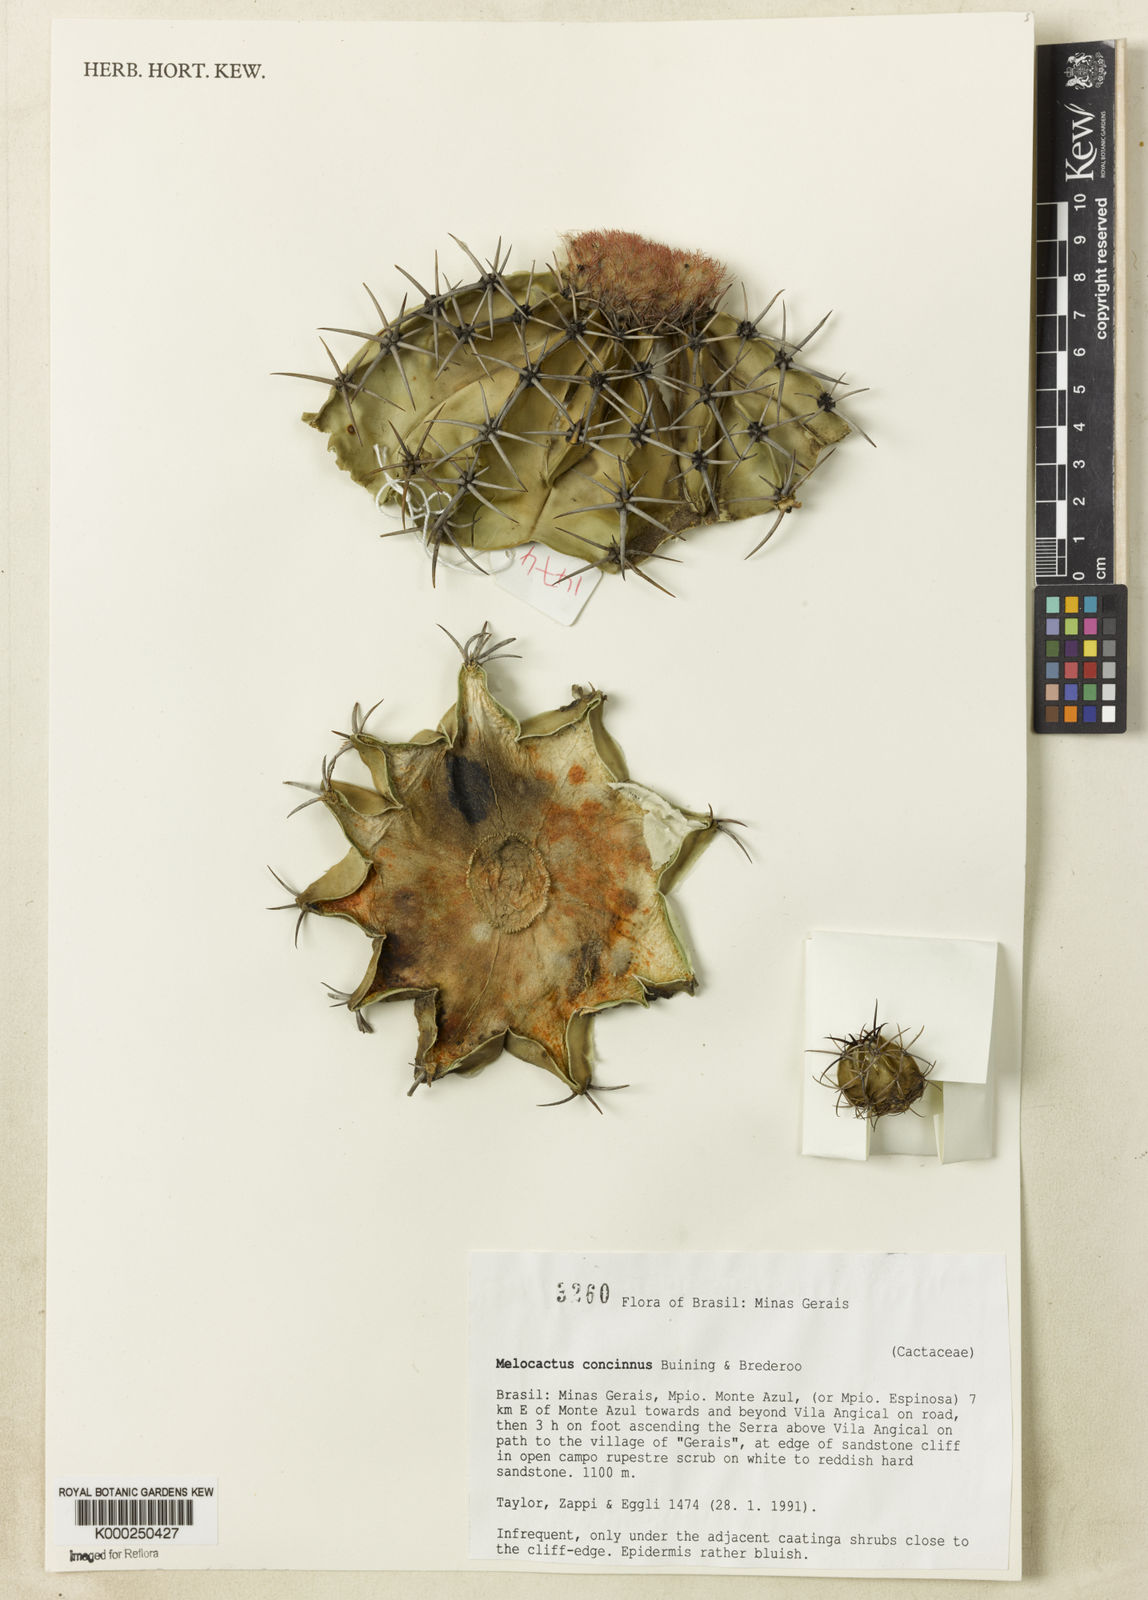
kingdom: Plantae
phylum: Tracheophyta
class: Magnoliopsida
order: Caryophyllales
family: Cactaceae
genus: Melocactus
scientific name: Melocactus pruinosus
